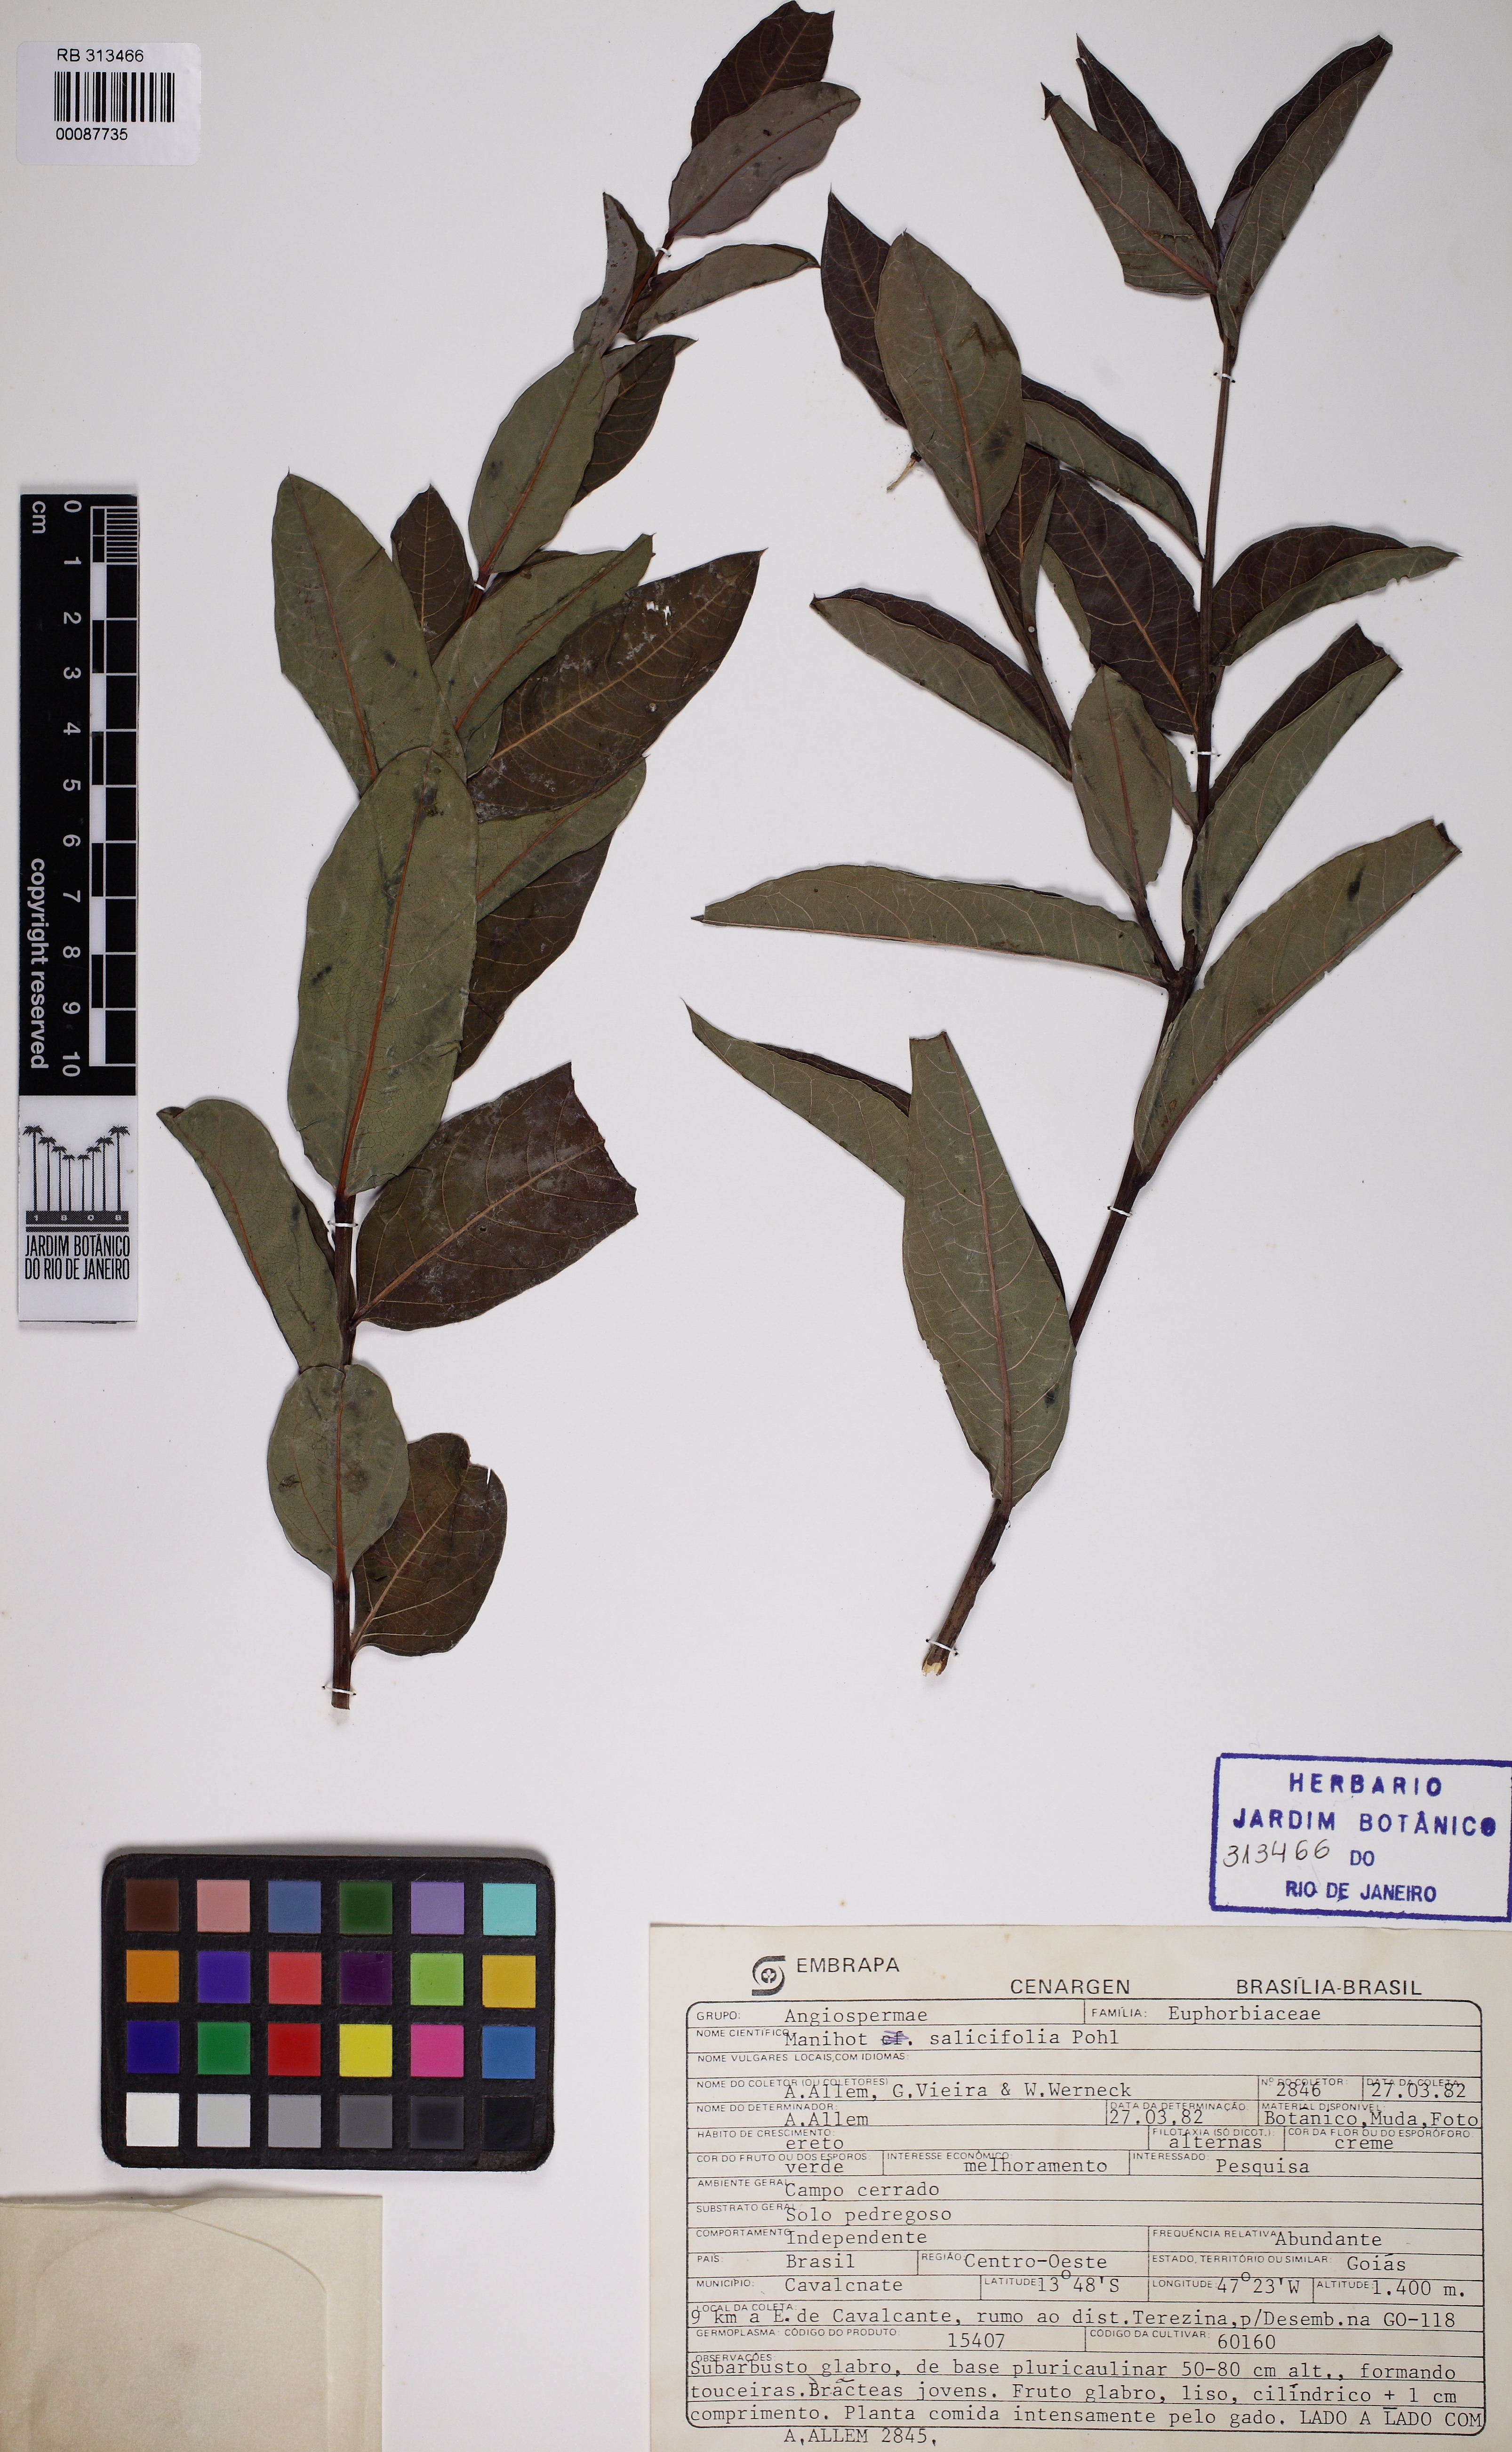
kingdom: Plantae
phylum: Tracheophyta
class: Magnoliopsida
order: Malpighiales
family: Euphorbiaceae
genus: Manihot
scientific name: Manihot salicifolia
